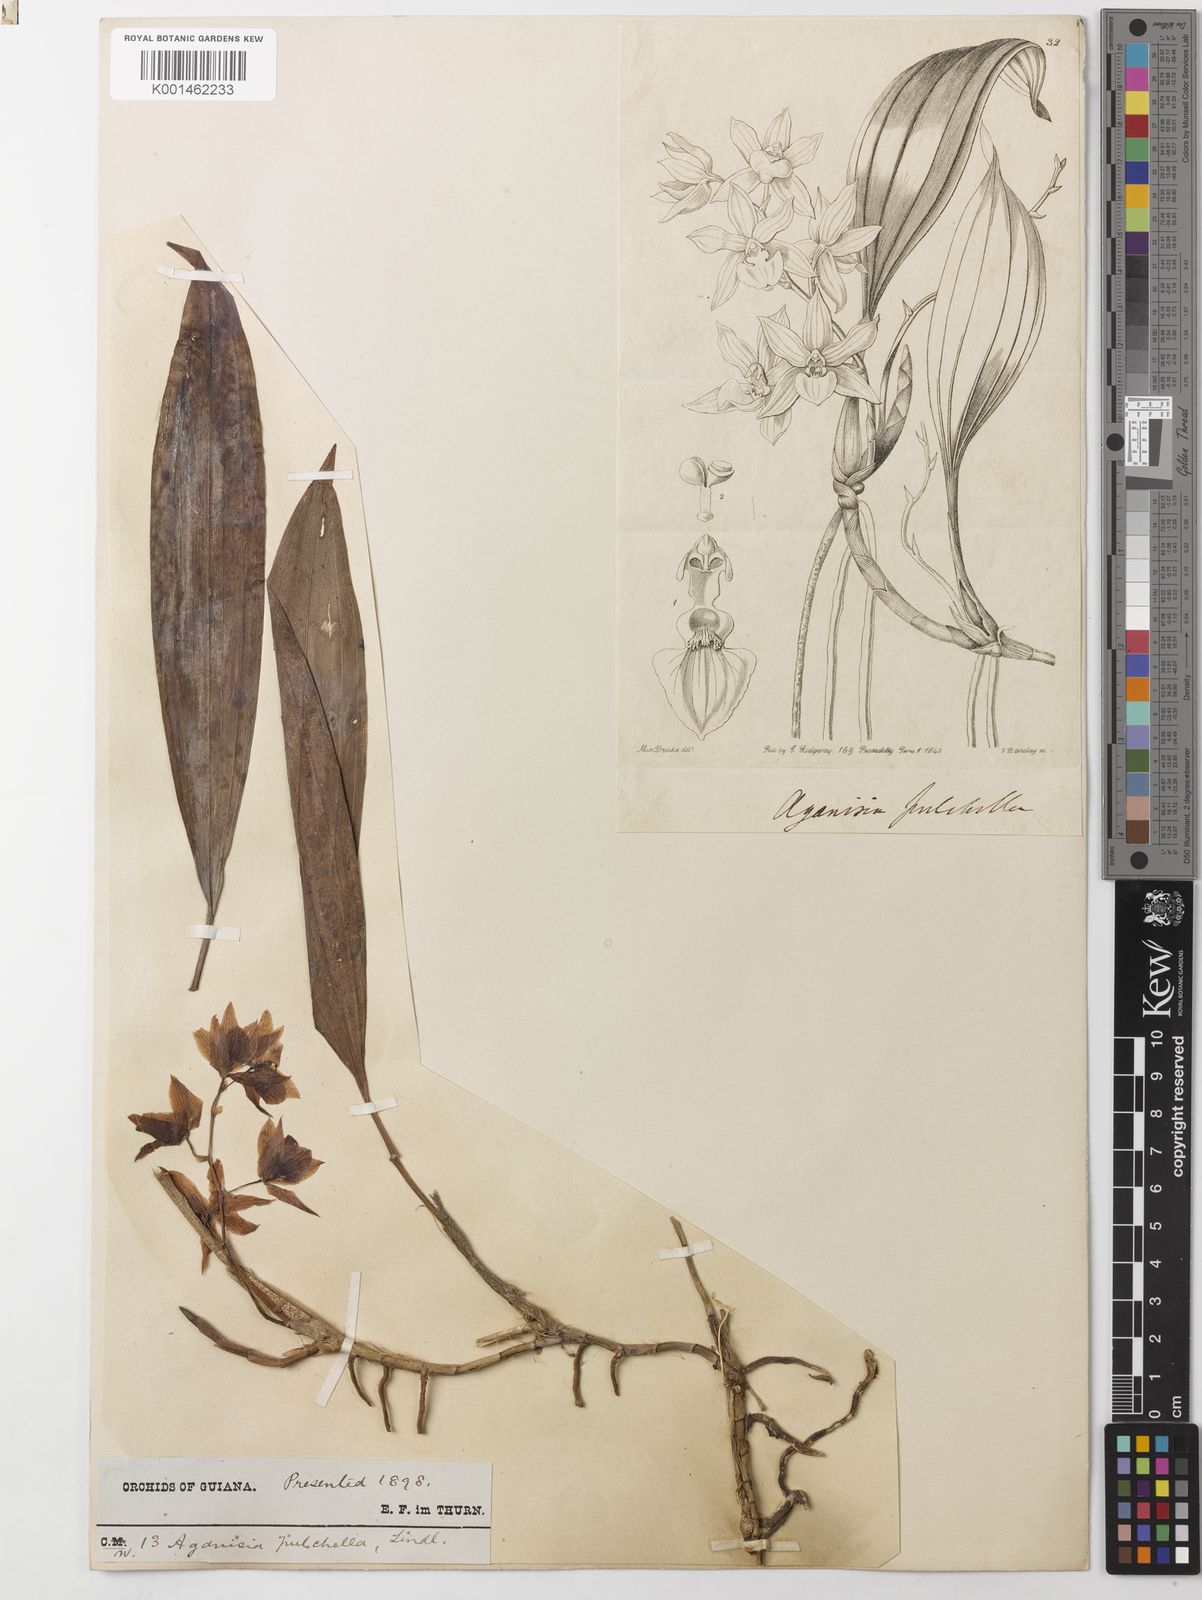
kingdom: Plantae
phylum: Tracheophyta
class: Liliopsida
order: Asparagales
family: Orchidaceae
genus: Aganisia
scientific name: Aganisia pulchella
